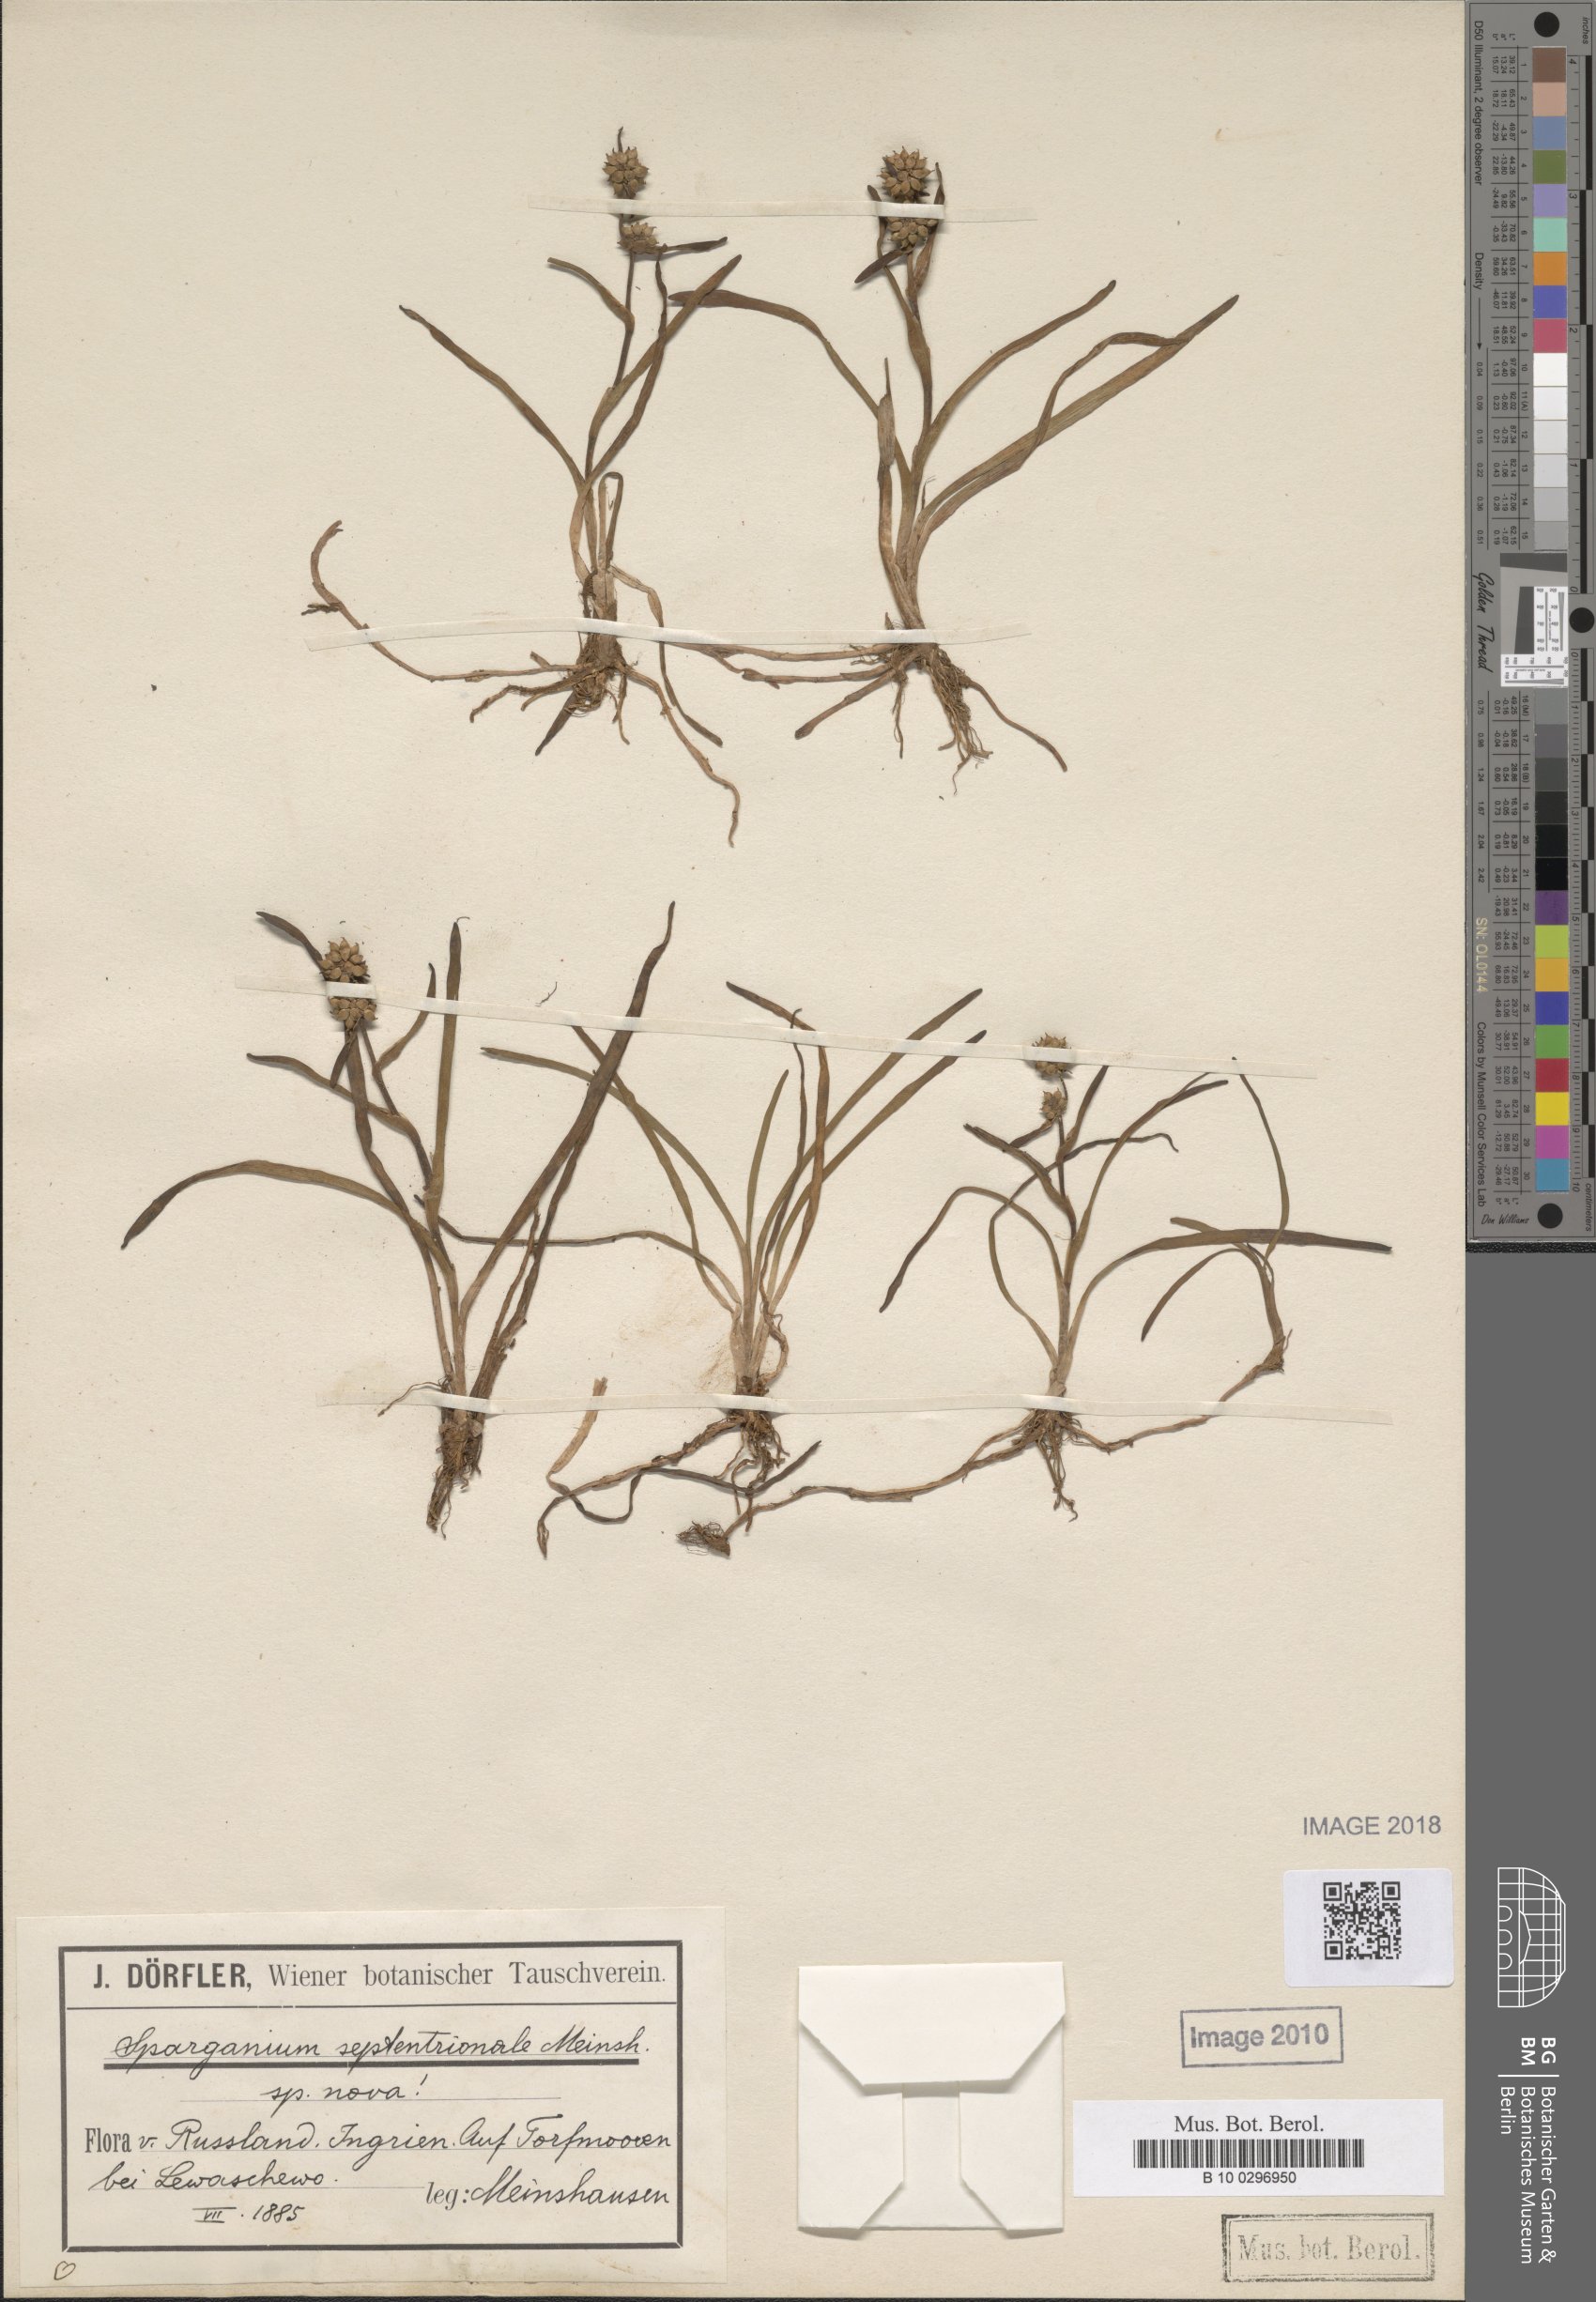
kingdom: Plantae
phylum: Tracheophyta
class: Liliopsida
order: Poales
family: Typhaceae
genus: Sparganium
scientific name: Sparganium natans
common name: Least bur-reed
